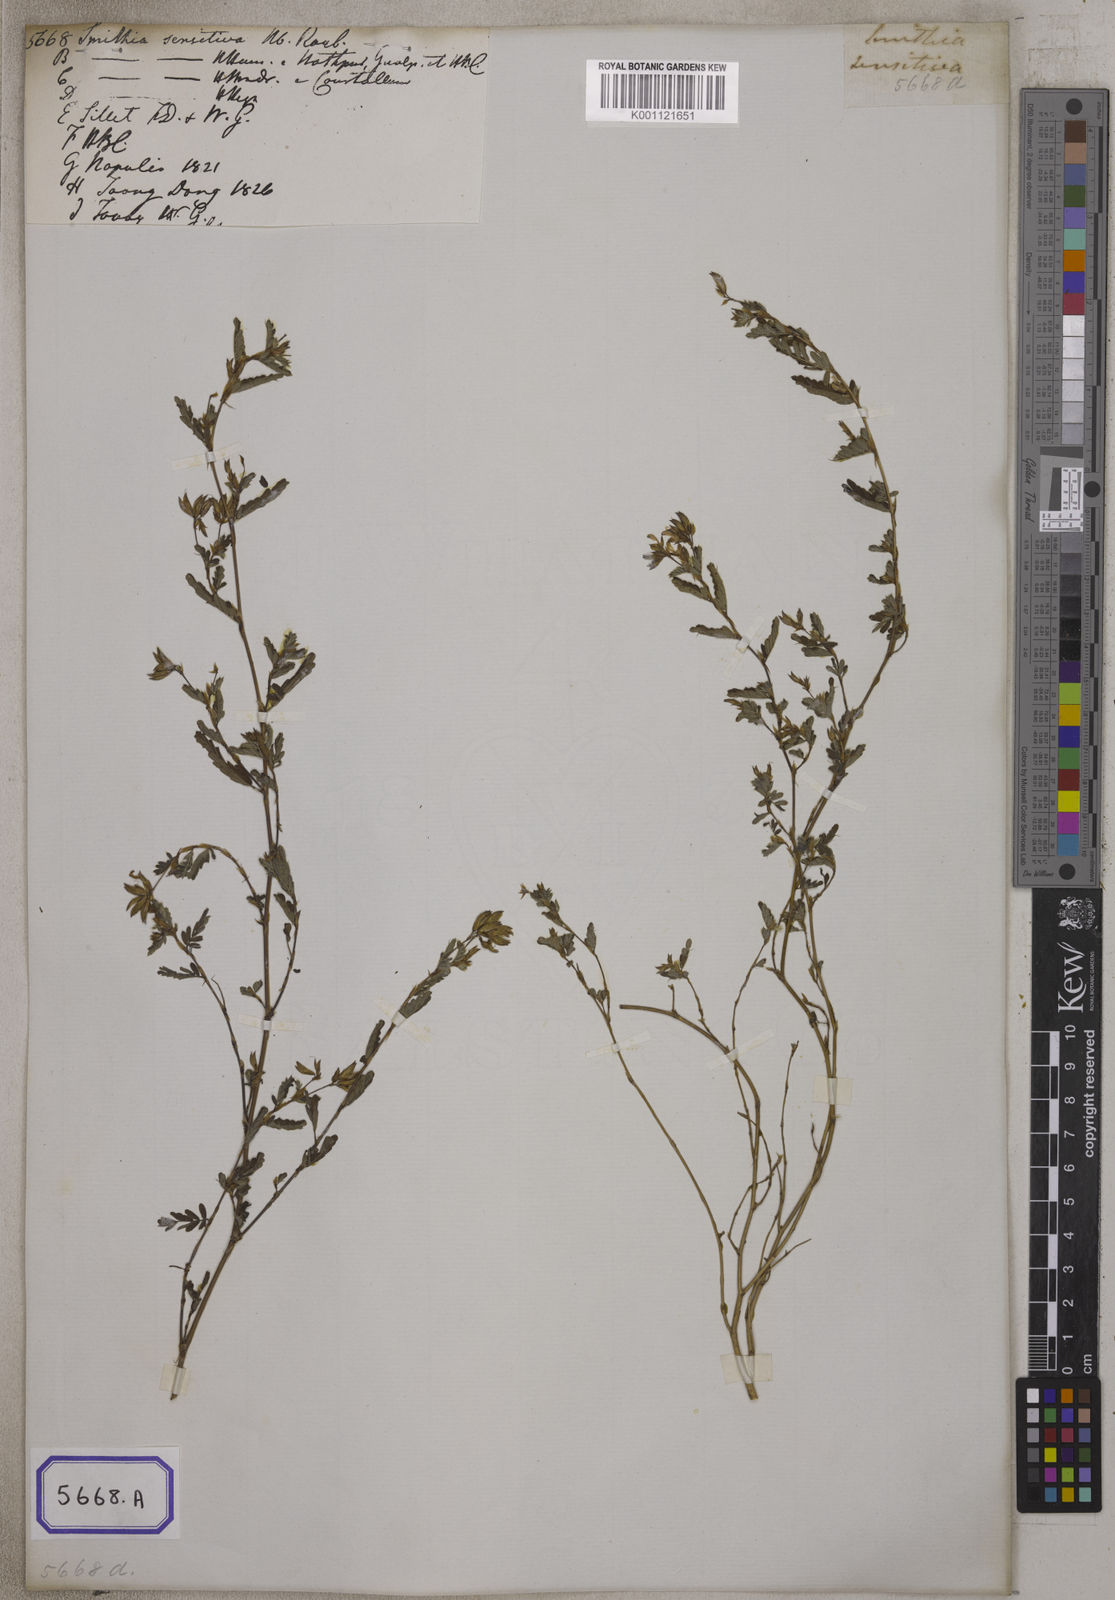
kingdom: Plantae
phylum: Tracheophyta
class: Magnoliopsida
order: Fabales
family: Fabaceae
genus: Smithia
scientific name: Smithia sensitiva
